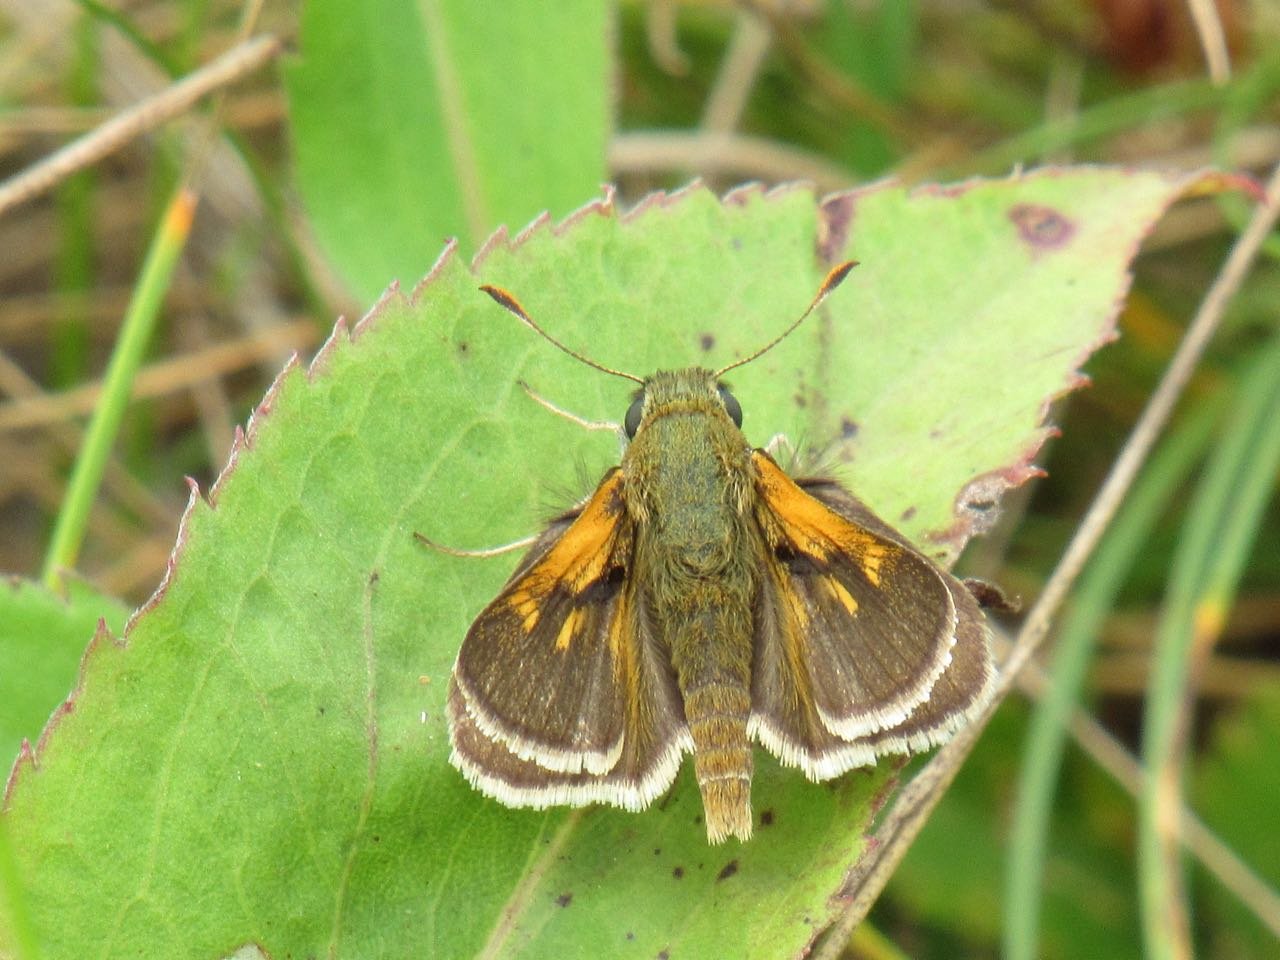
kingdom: Animalia
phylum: Arthropoda
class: Insecta
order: Lepidoptera
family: Hesperiidae
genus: Polites
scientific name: Polites themistocles
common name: Tawny-edged Skipper
